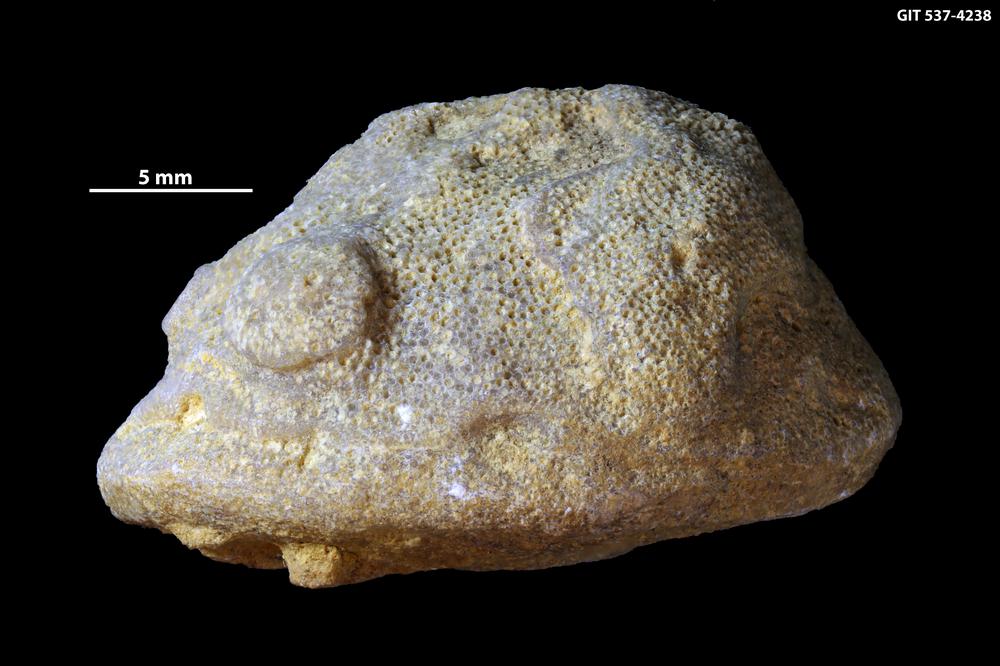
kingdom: Animalia
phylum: Bryozoa
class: Stenolaemata
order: Trepostomatida
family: Monticuliporidae
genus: Mesotrypa
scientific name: Mesotrypa excentrica
